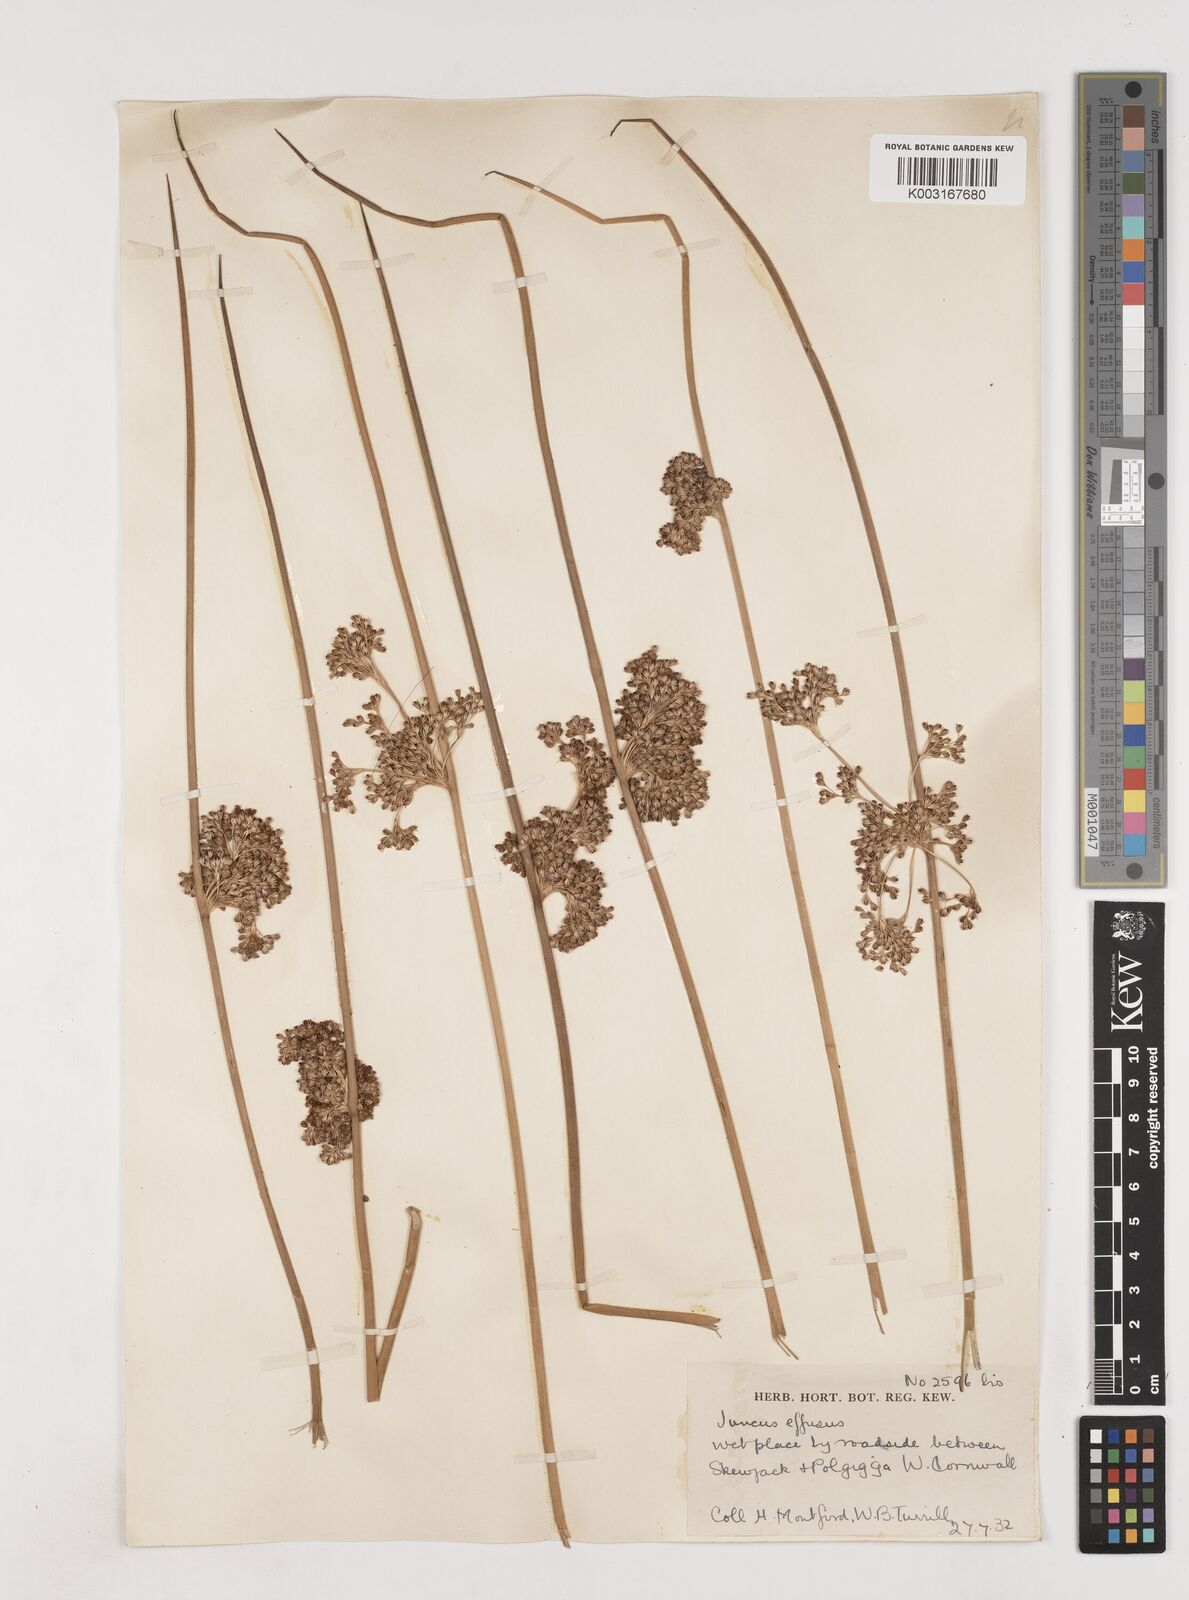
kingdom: Plantae
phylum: Tracheophyta
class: Liliopsida
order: Poales
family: Juncaceae
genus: Juncus
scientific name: Juncus effusus
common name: Soft rush
